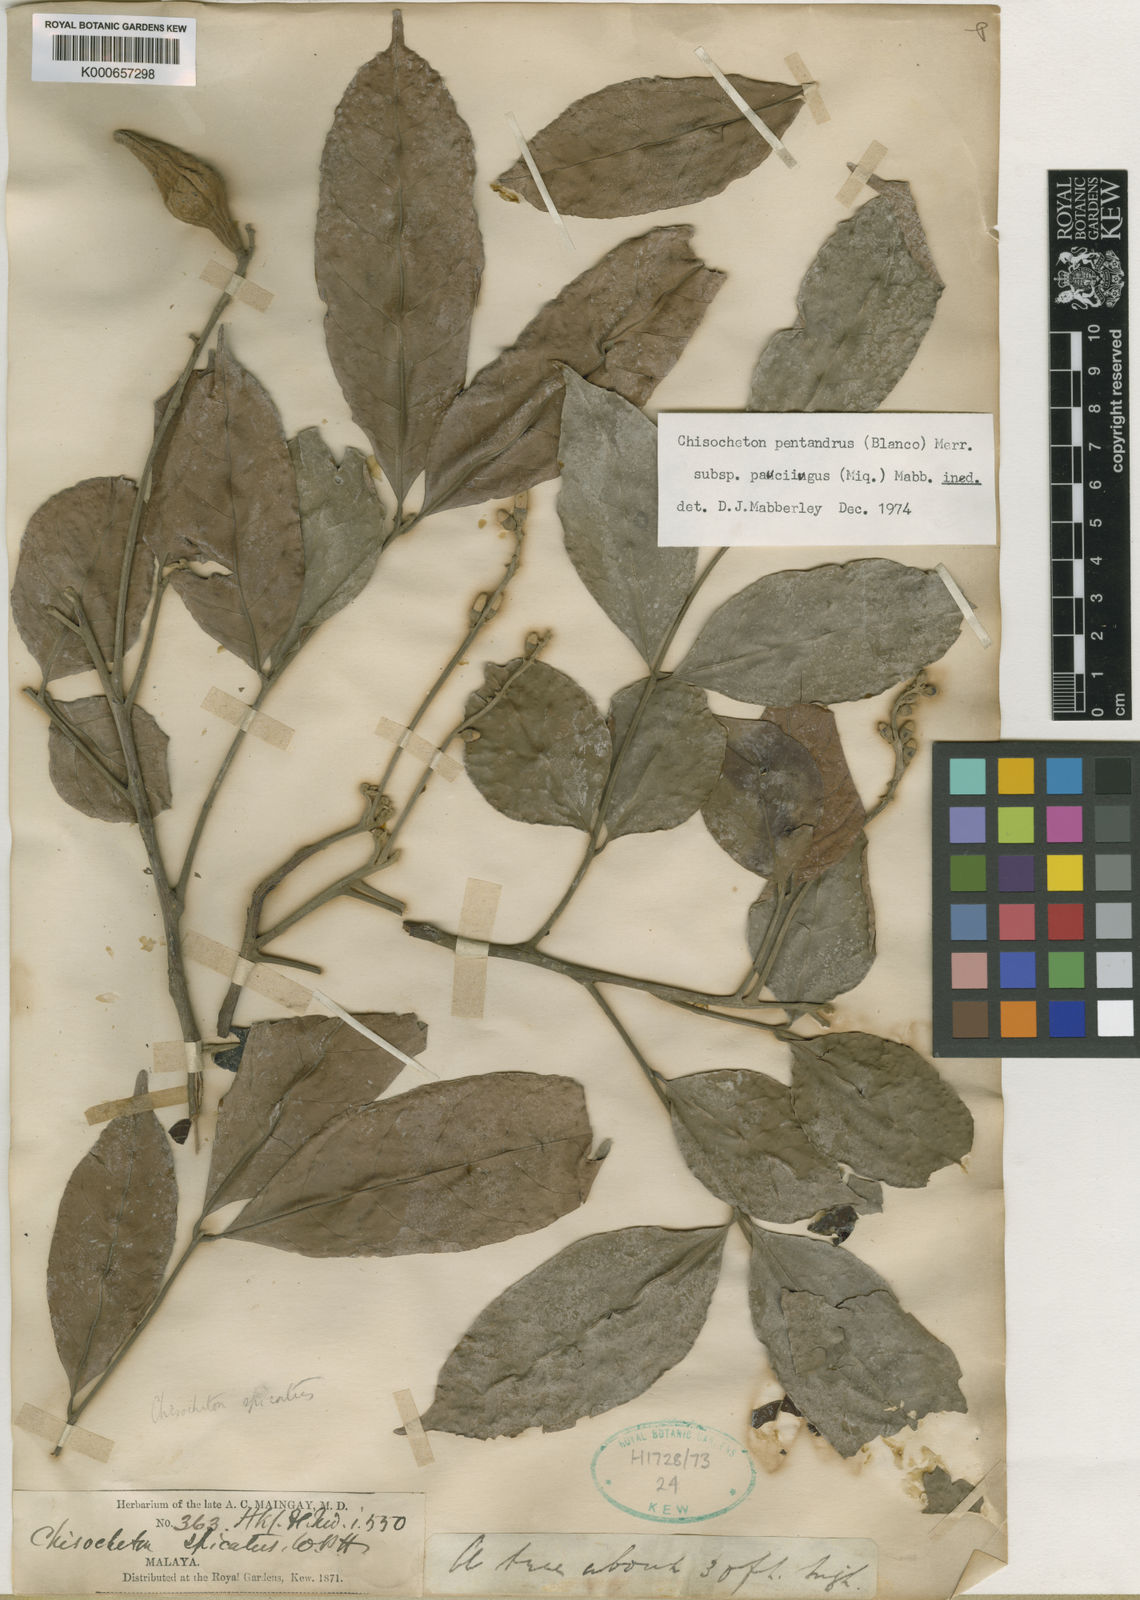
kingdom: Plantae
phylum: Tracheophyta
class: Magnoliopsida
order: Sapindales
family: Meliaceae
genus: Chisocheton
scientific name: Chisocheton pentandrus
